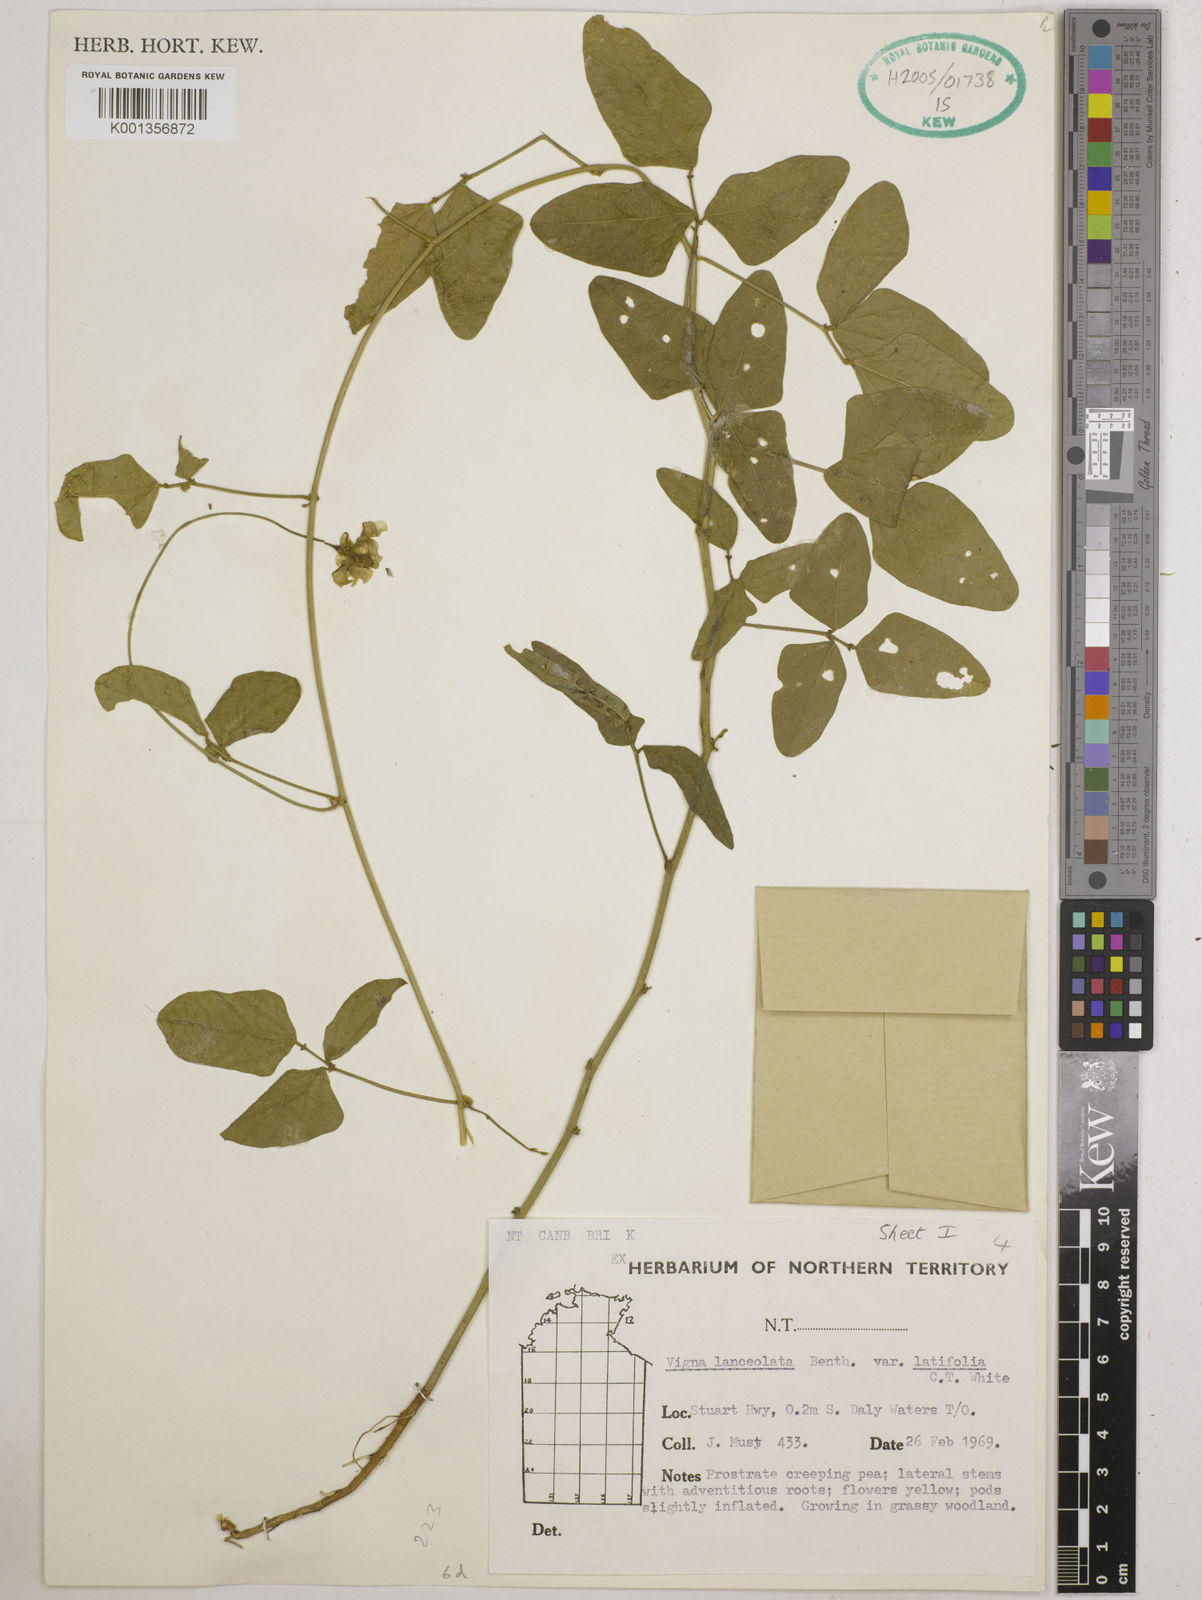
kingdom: Plantae
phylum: Tracheophyta
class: Magnoliopsida
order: Fabales
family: Fabaceae
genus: Vigna
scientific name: Vigna lanceolata
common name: Maloga-bean
